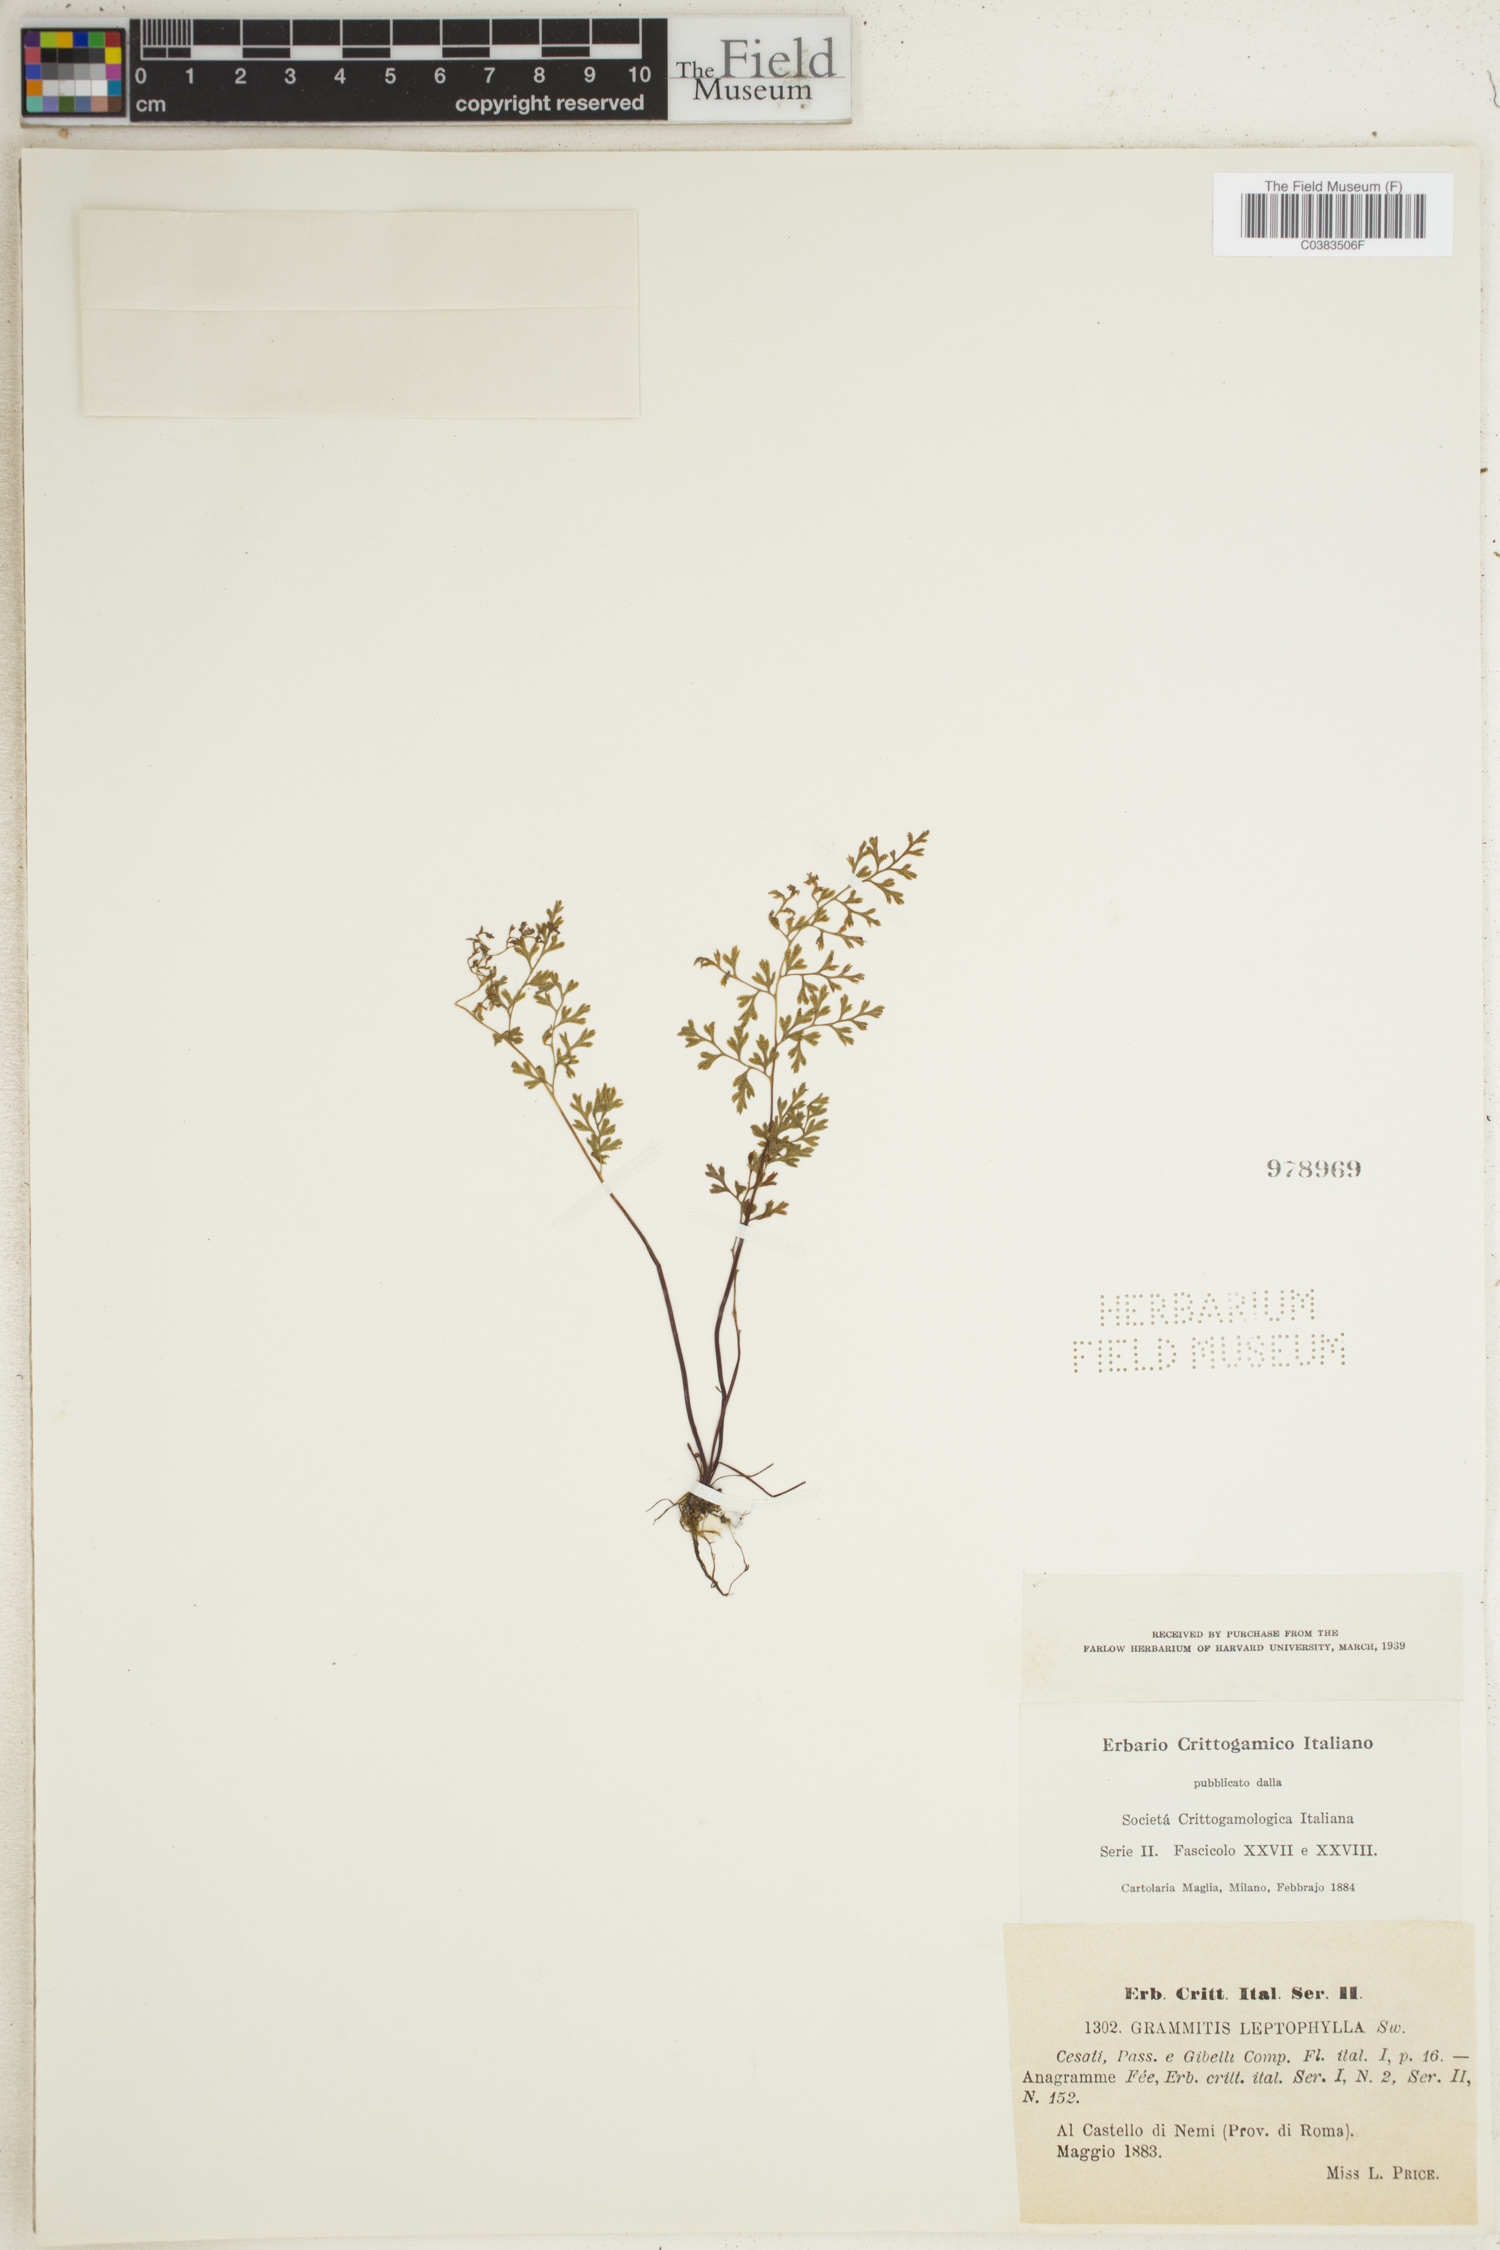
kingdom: Plantae
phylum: Tracheophyta
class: Polypodiopsida
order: Polypodiales
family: Pteridaceae
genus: Anogramma
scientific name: Anogramma leptophylla
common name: Jersey fern
